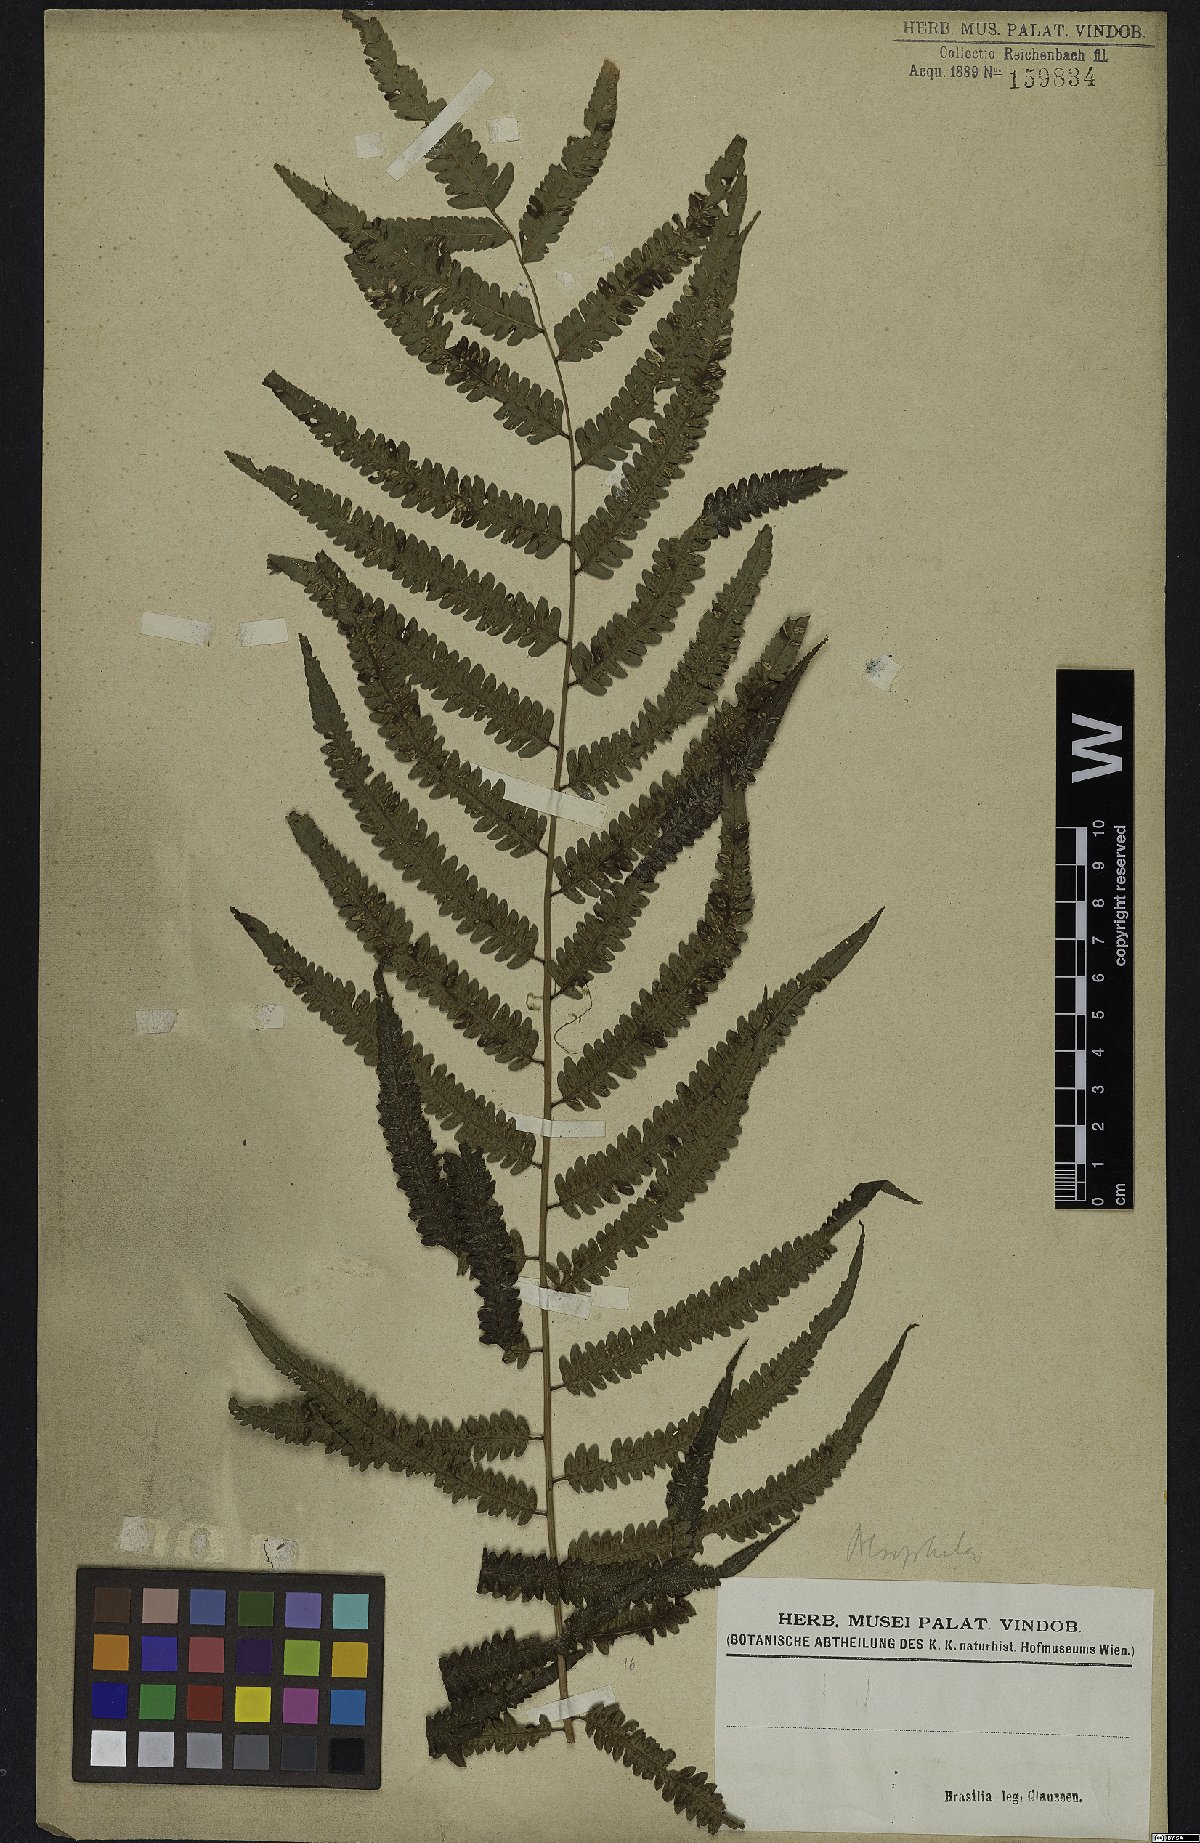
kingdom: Plantae
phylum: Tracheophyta
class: Polypodiopsida
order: Cyatheales
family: Cyatheaceae
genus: Alsophila
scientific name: Alsophila
